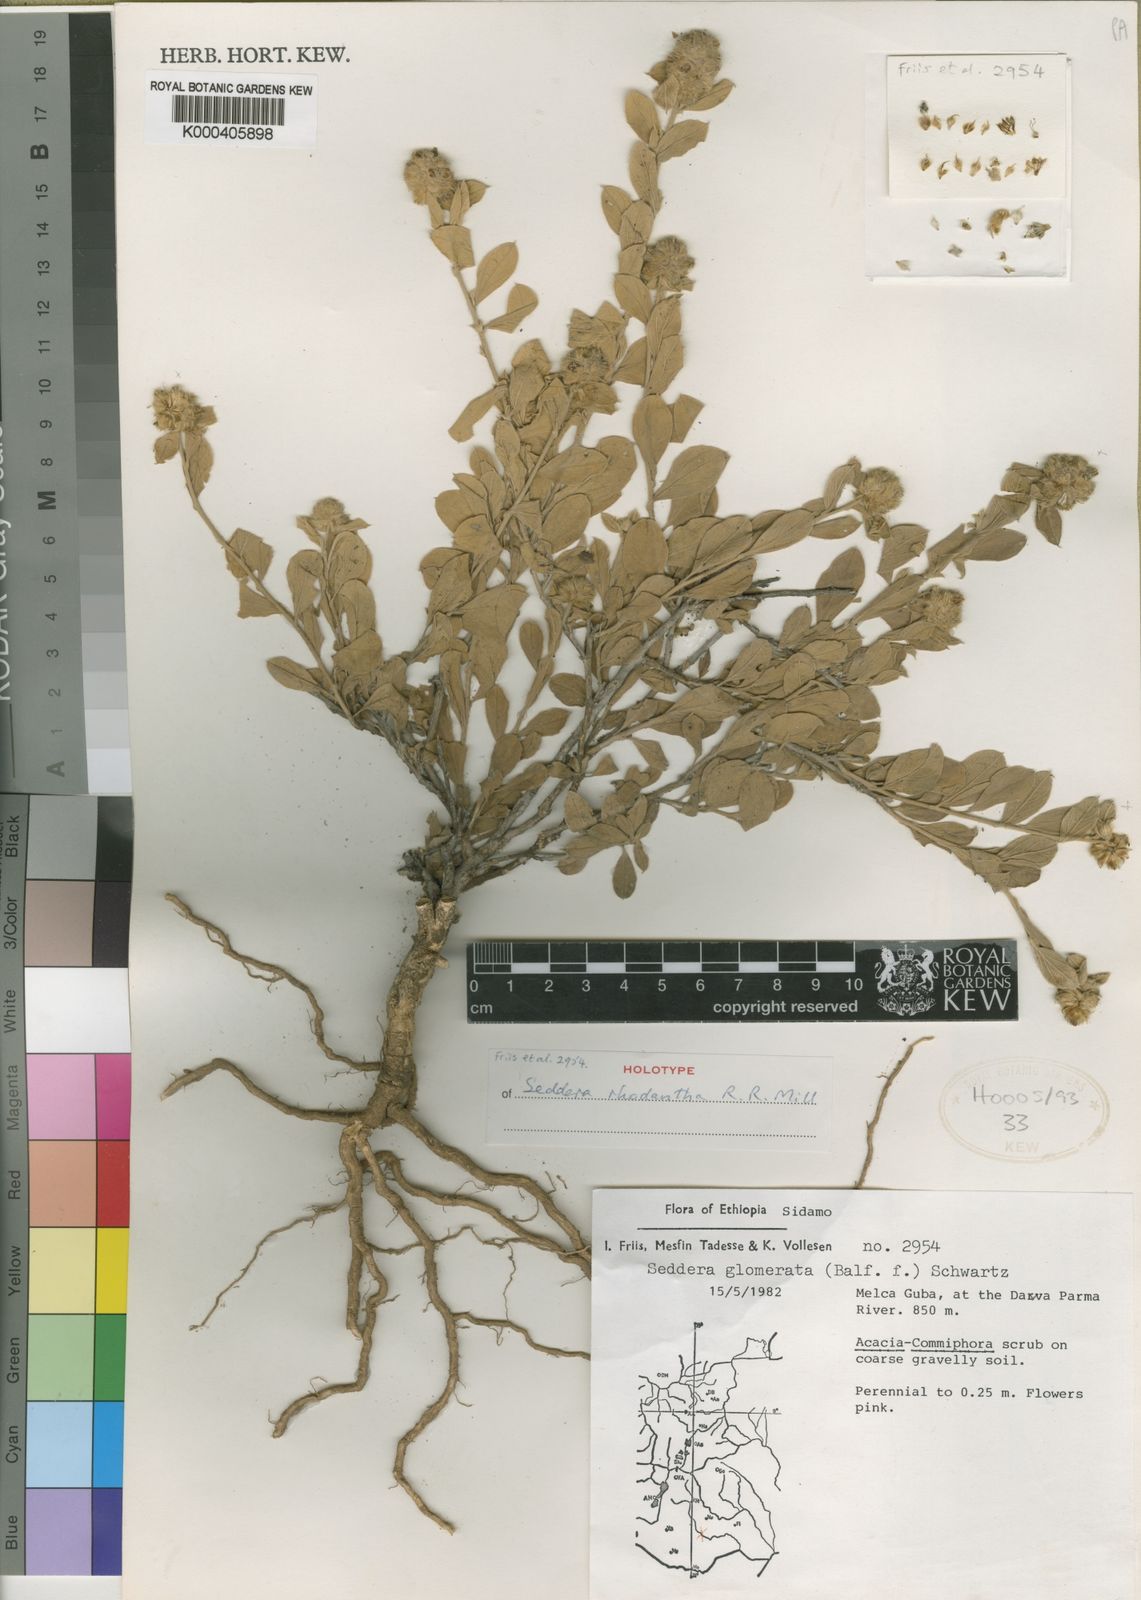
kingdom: Plantae
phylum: Tracheophyta
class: Magnoliopsida
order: Solanales
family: Convolvulaceae
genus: Seddera
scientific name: Seddera rhodantha
